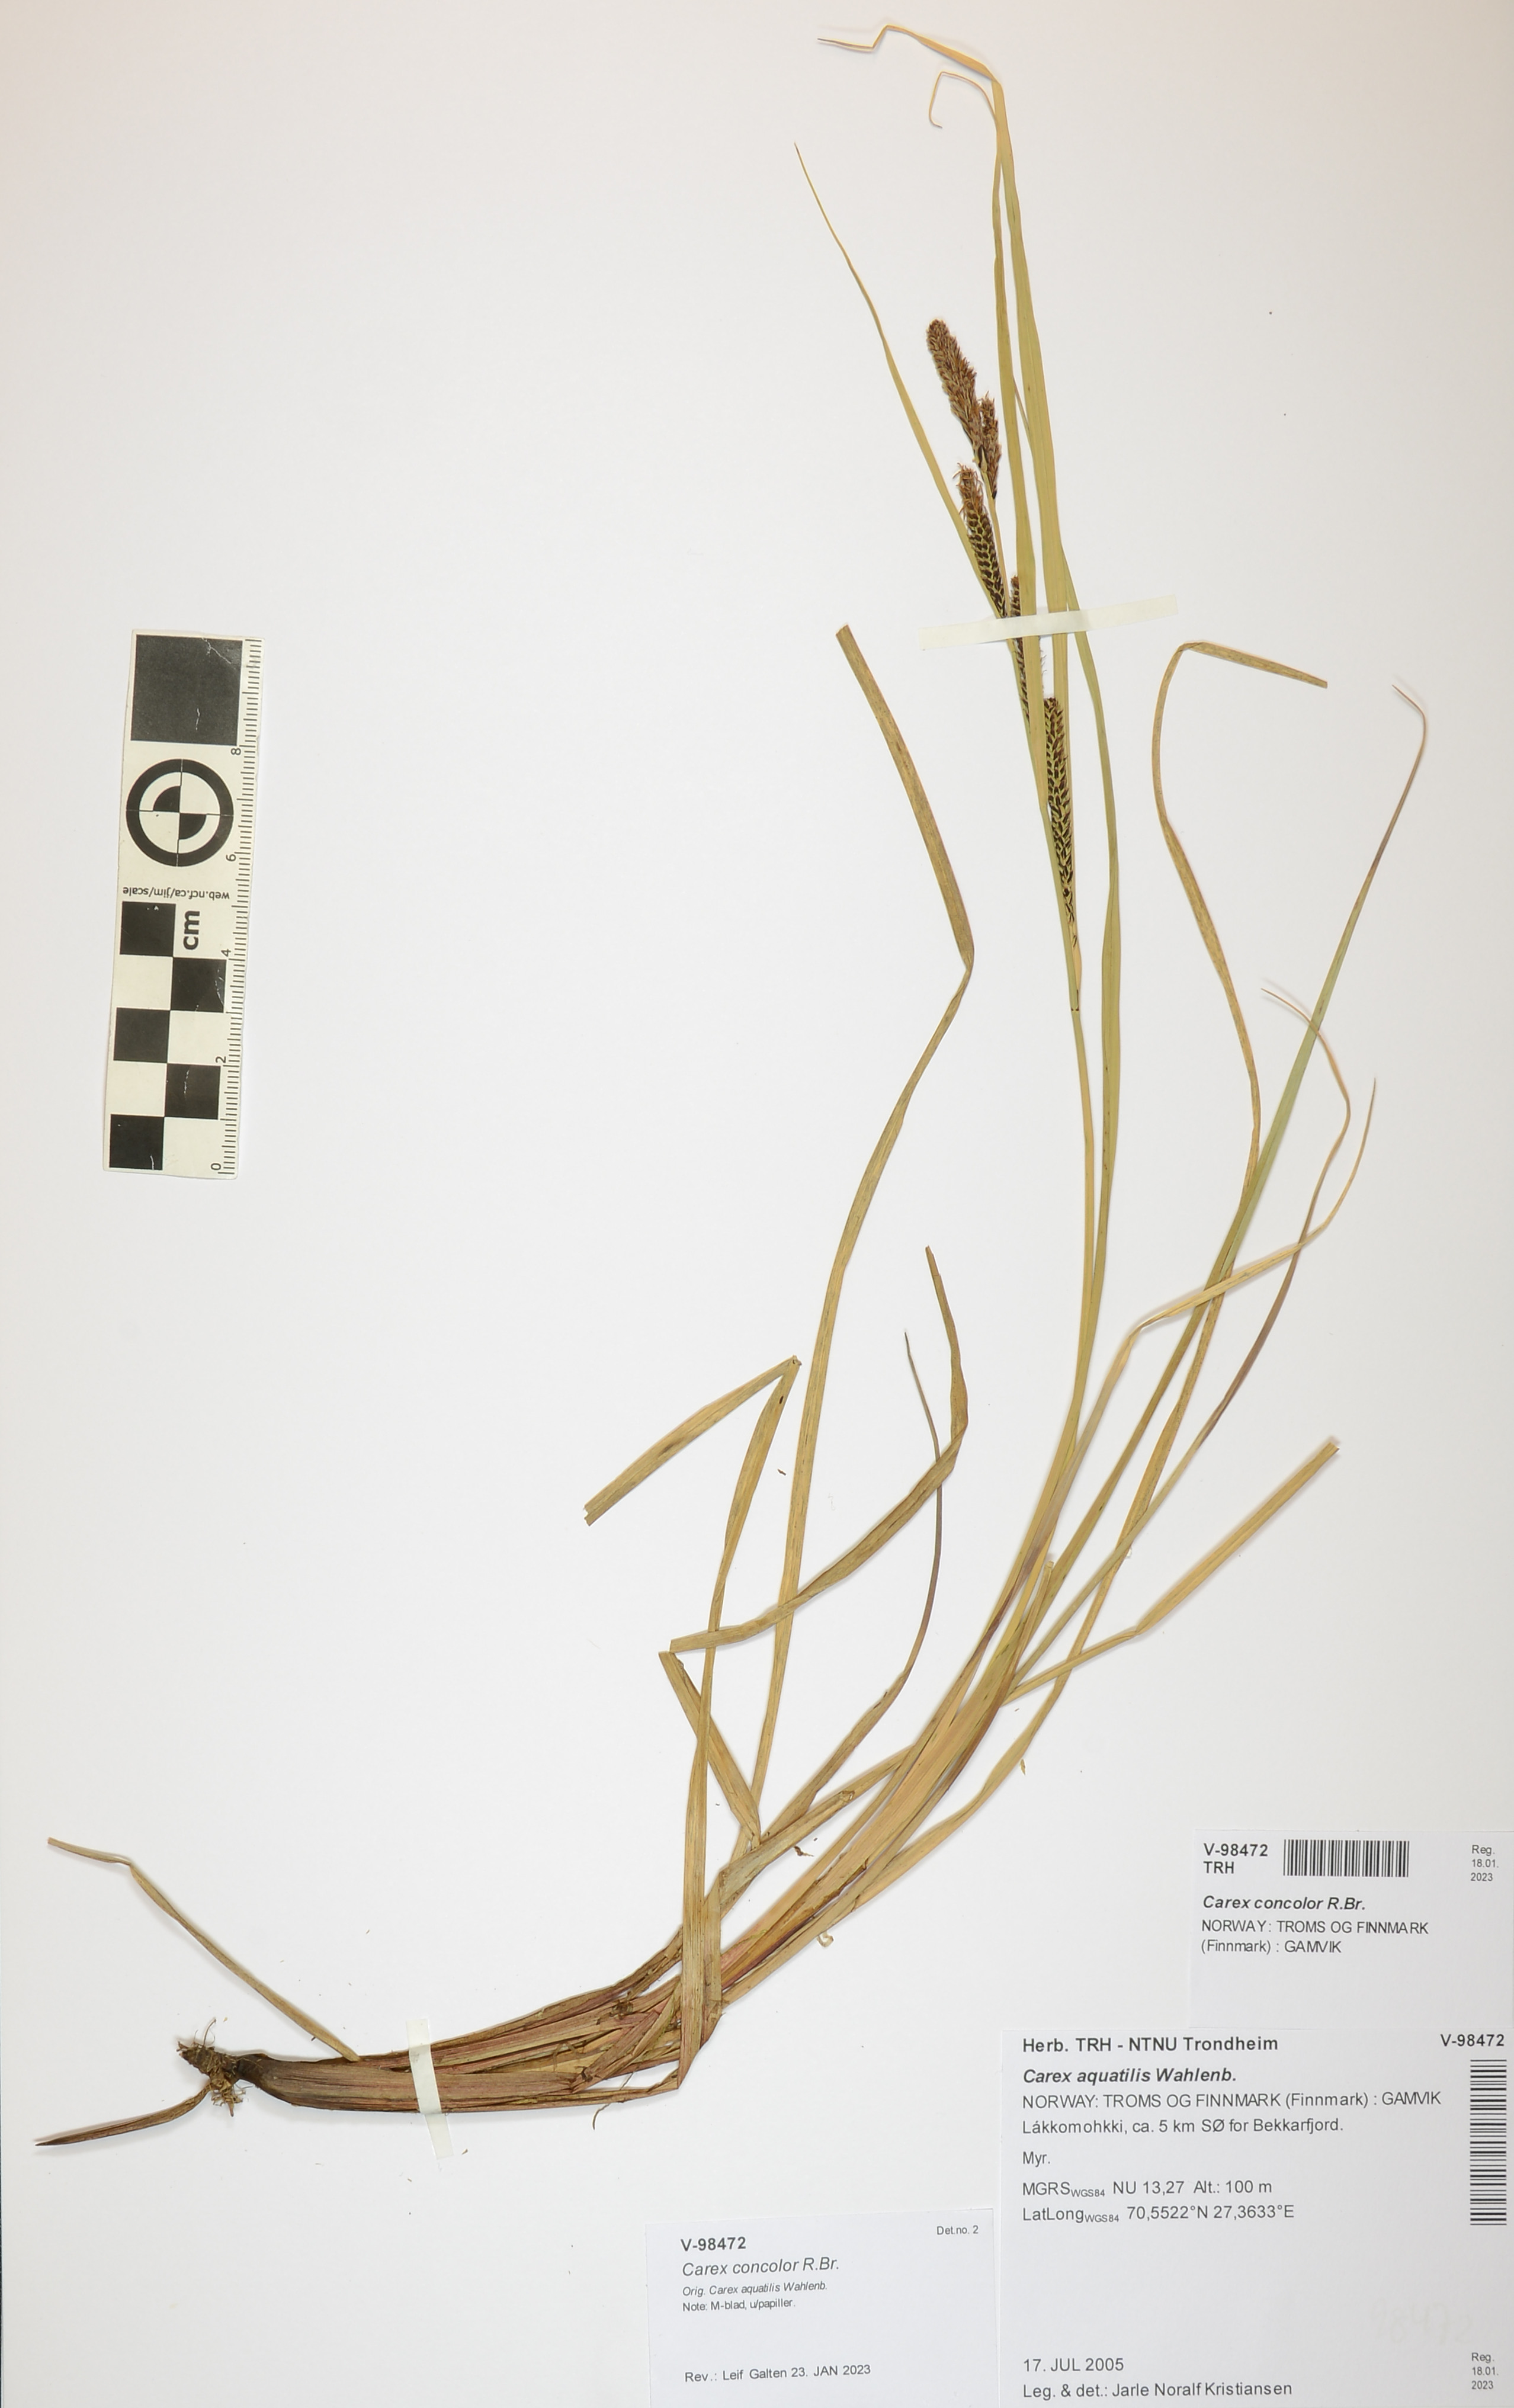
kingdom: Plantae
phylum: Tracheophyta
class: Liliopsida
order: Poales
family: Cyperaceae
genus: Carex
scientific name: Carex aquatilis
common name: Water sedge
